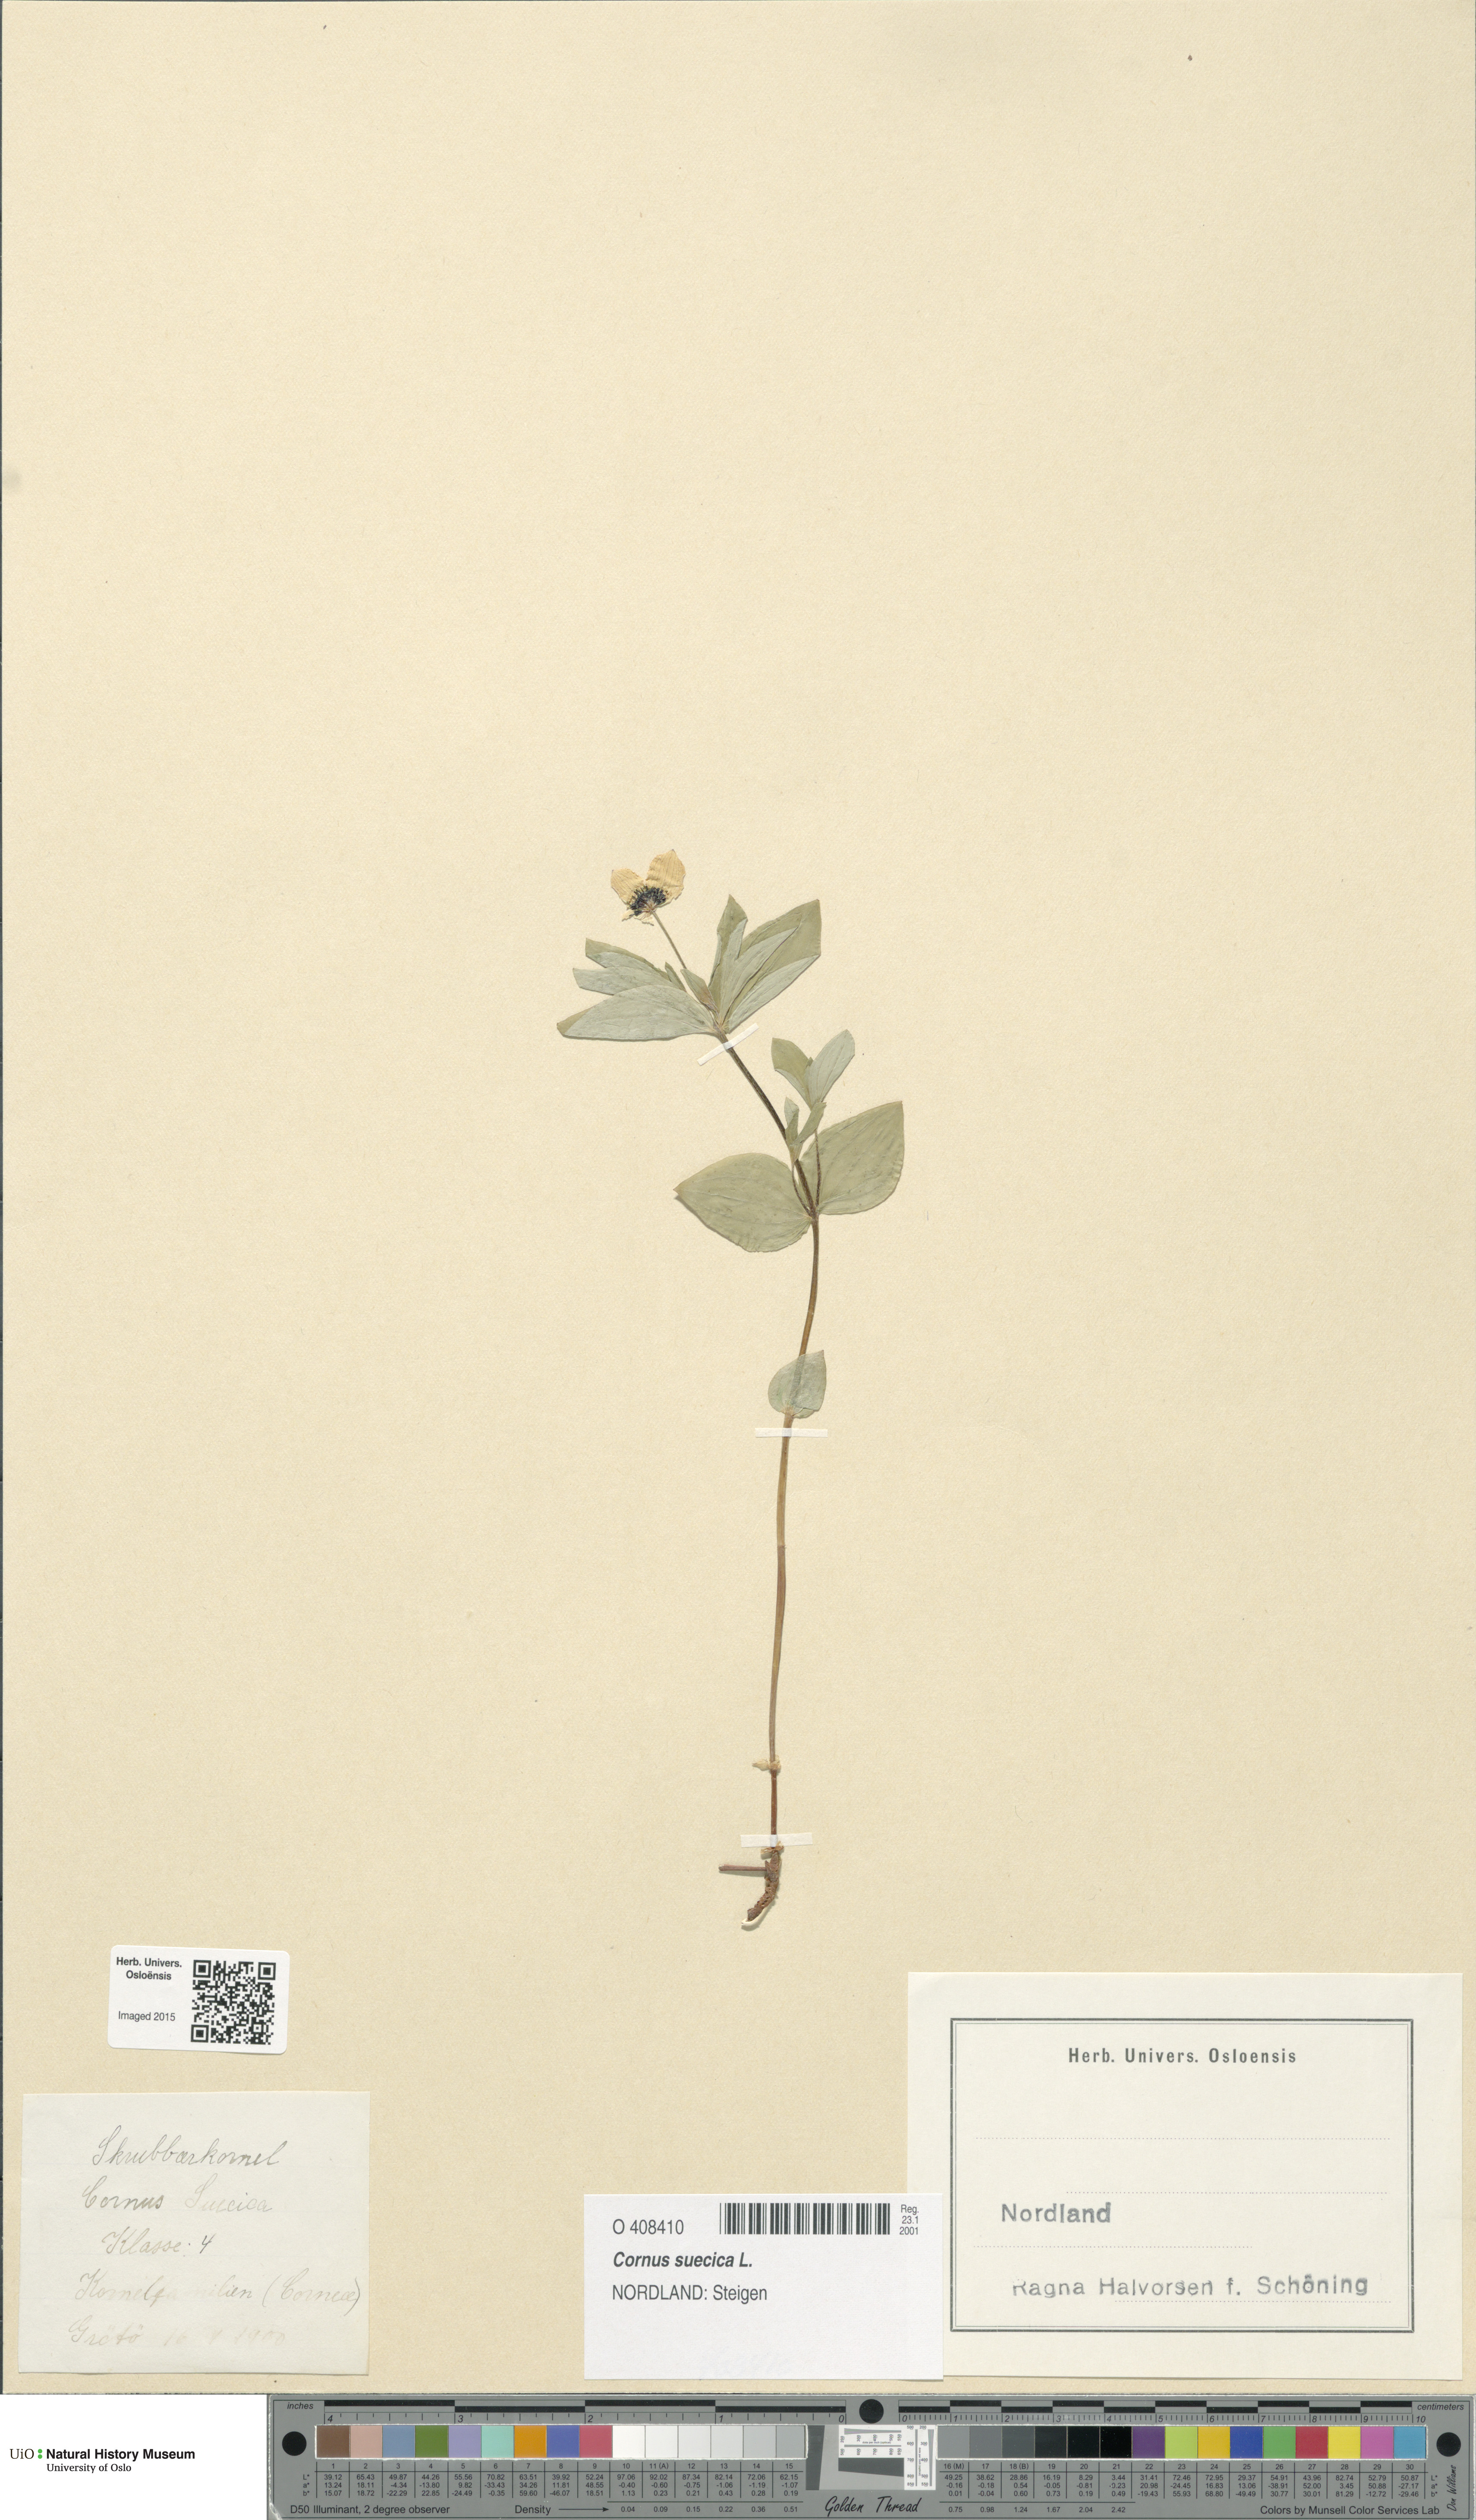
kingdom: Plantae
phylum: Tracheophyta
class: Magnoliopsida
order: Cornales
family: Cornaceae
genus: Cornus
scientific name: Cornus suecica
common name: Dwarf cornel
